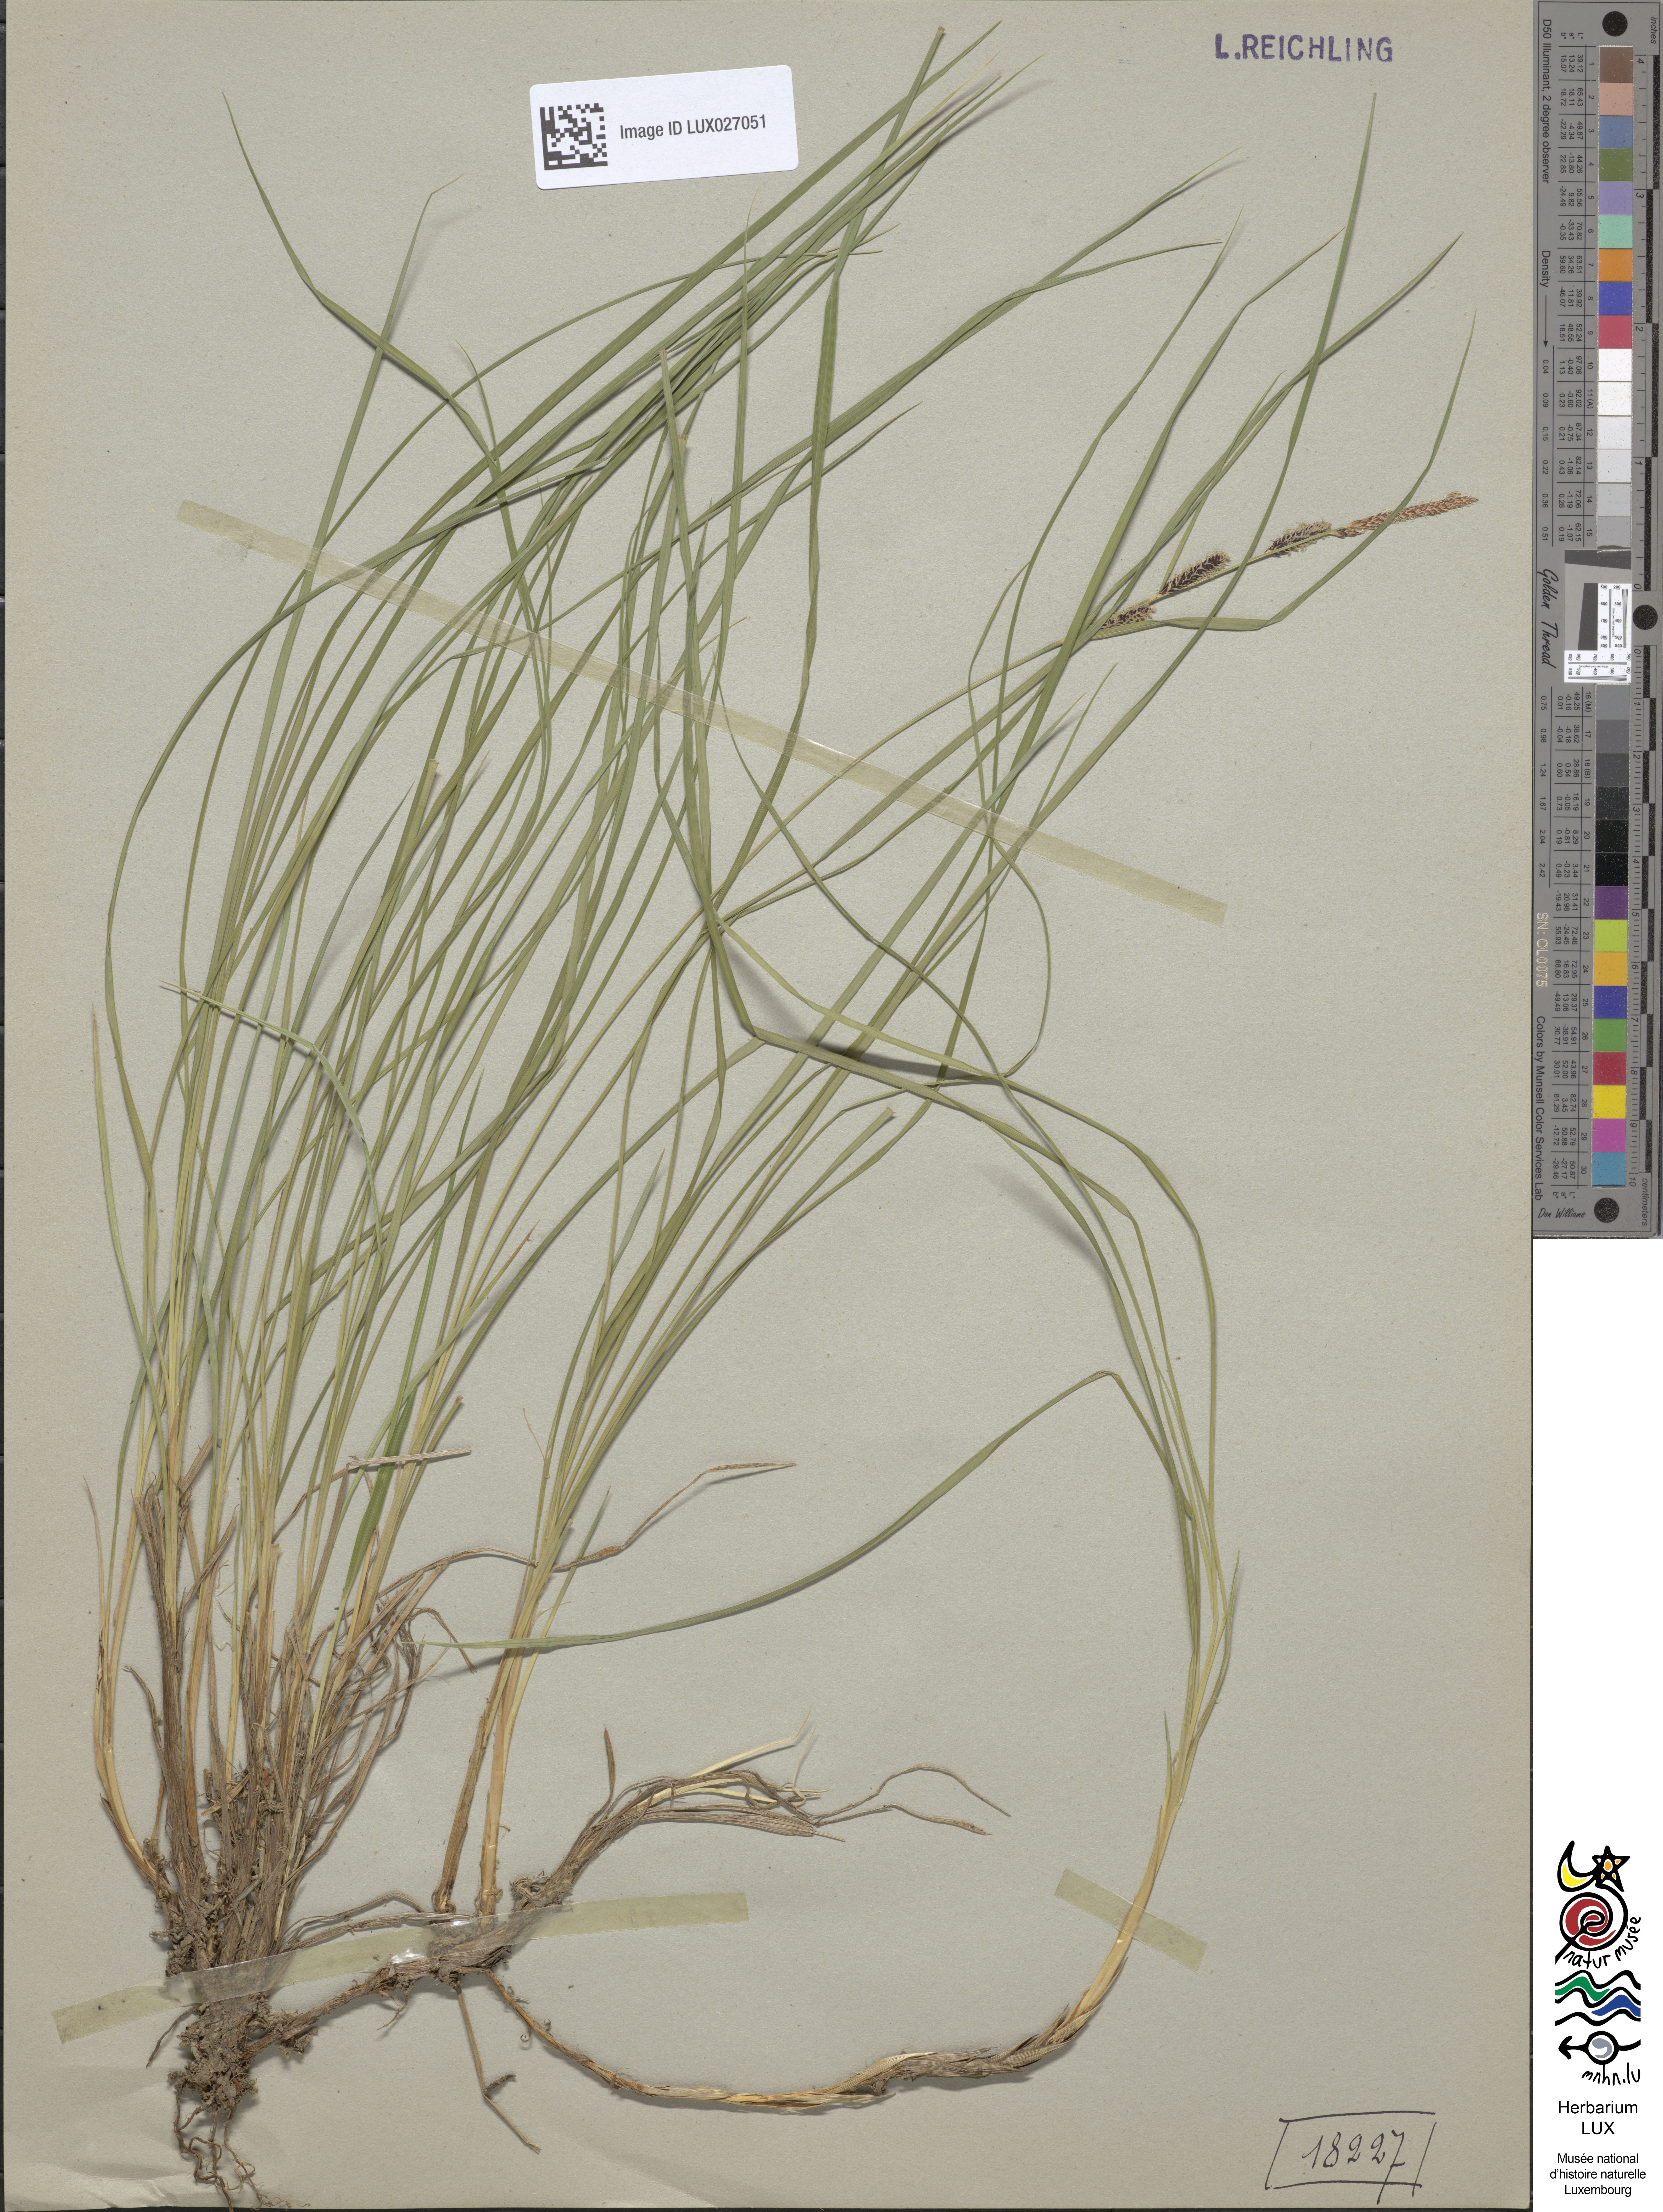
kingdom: Plantae
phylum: Tracheophyta
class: Liliopsida
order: Poales
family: Cyperaceae
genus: Carex
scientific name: Carex nigra
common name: Common sedge
